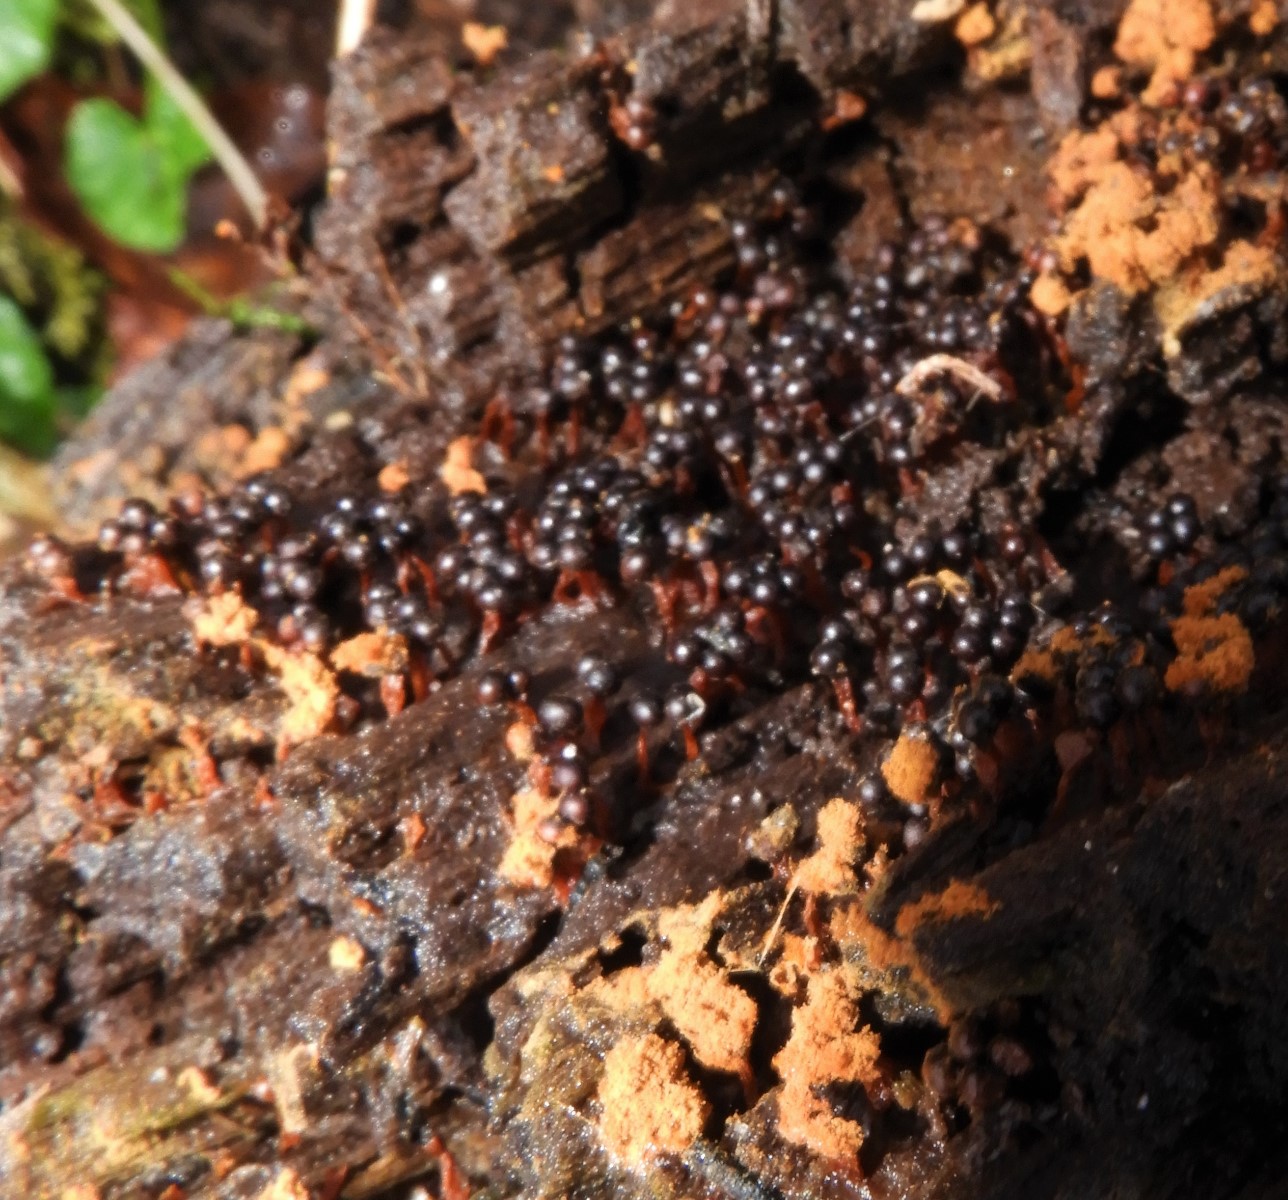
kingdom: Protozoa
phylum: Mycetozoa
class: Myxomycetes
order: Trichiales
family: Trichiaceae
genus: Metatrichia
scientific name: Metatrichia floriformis
